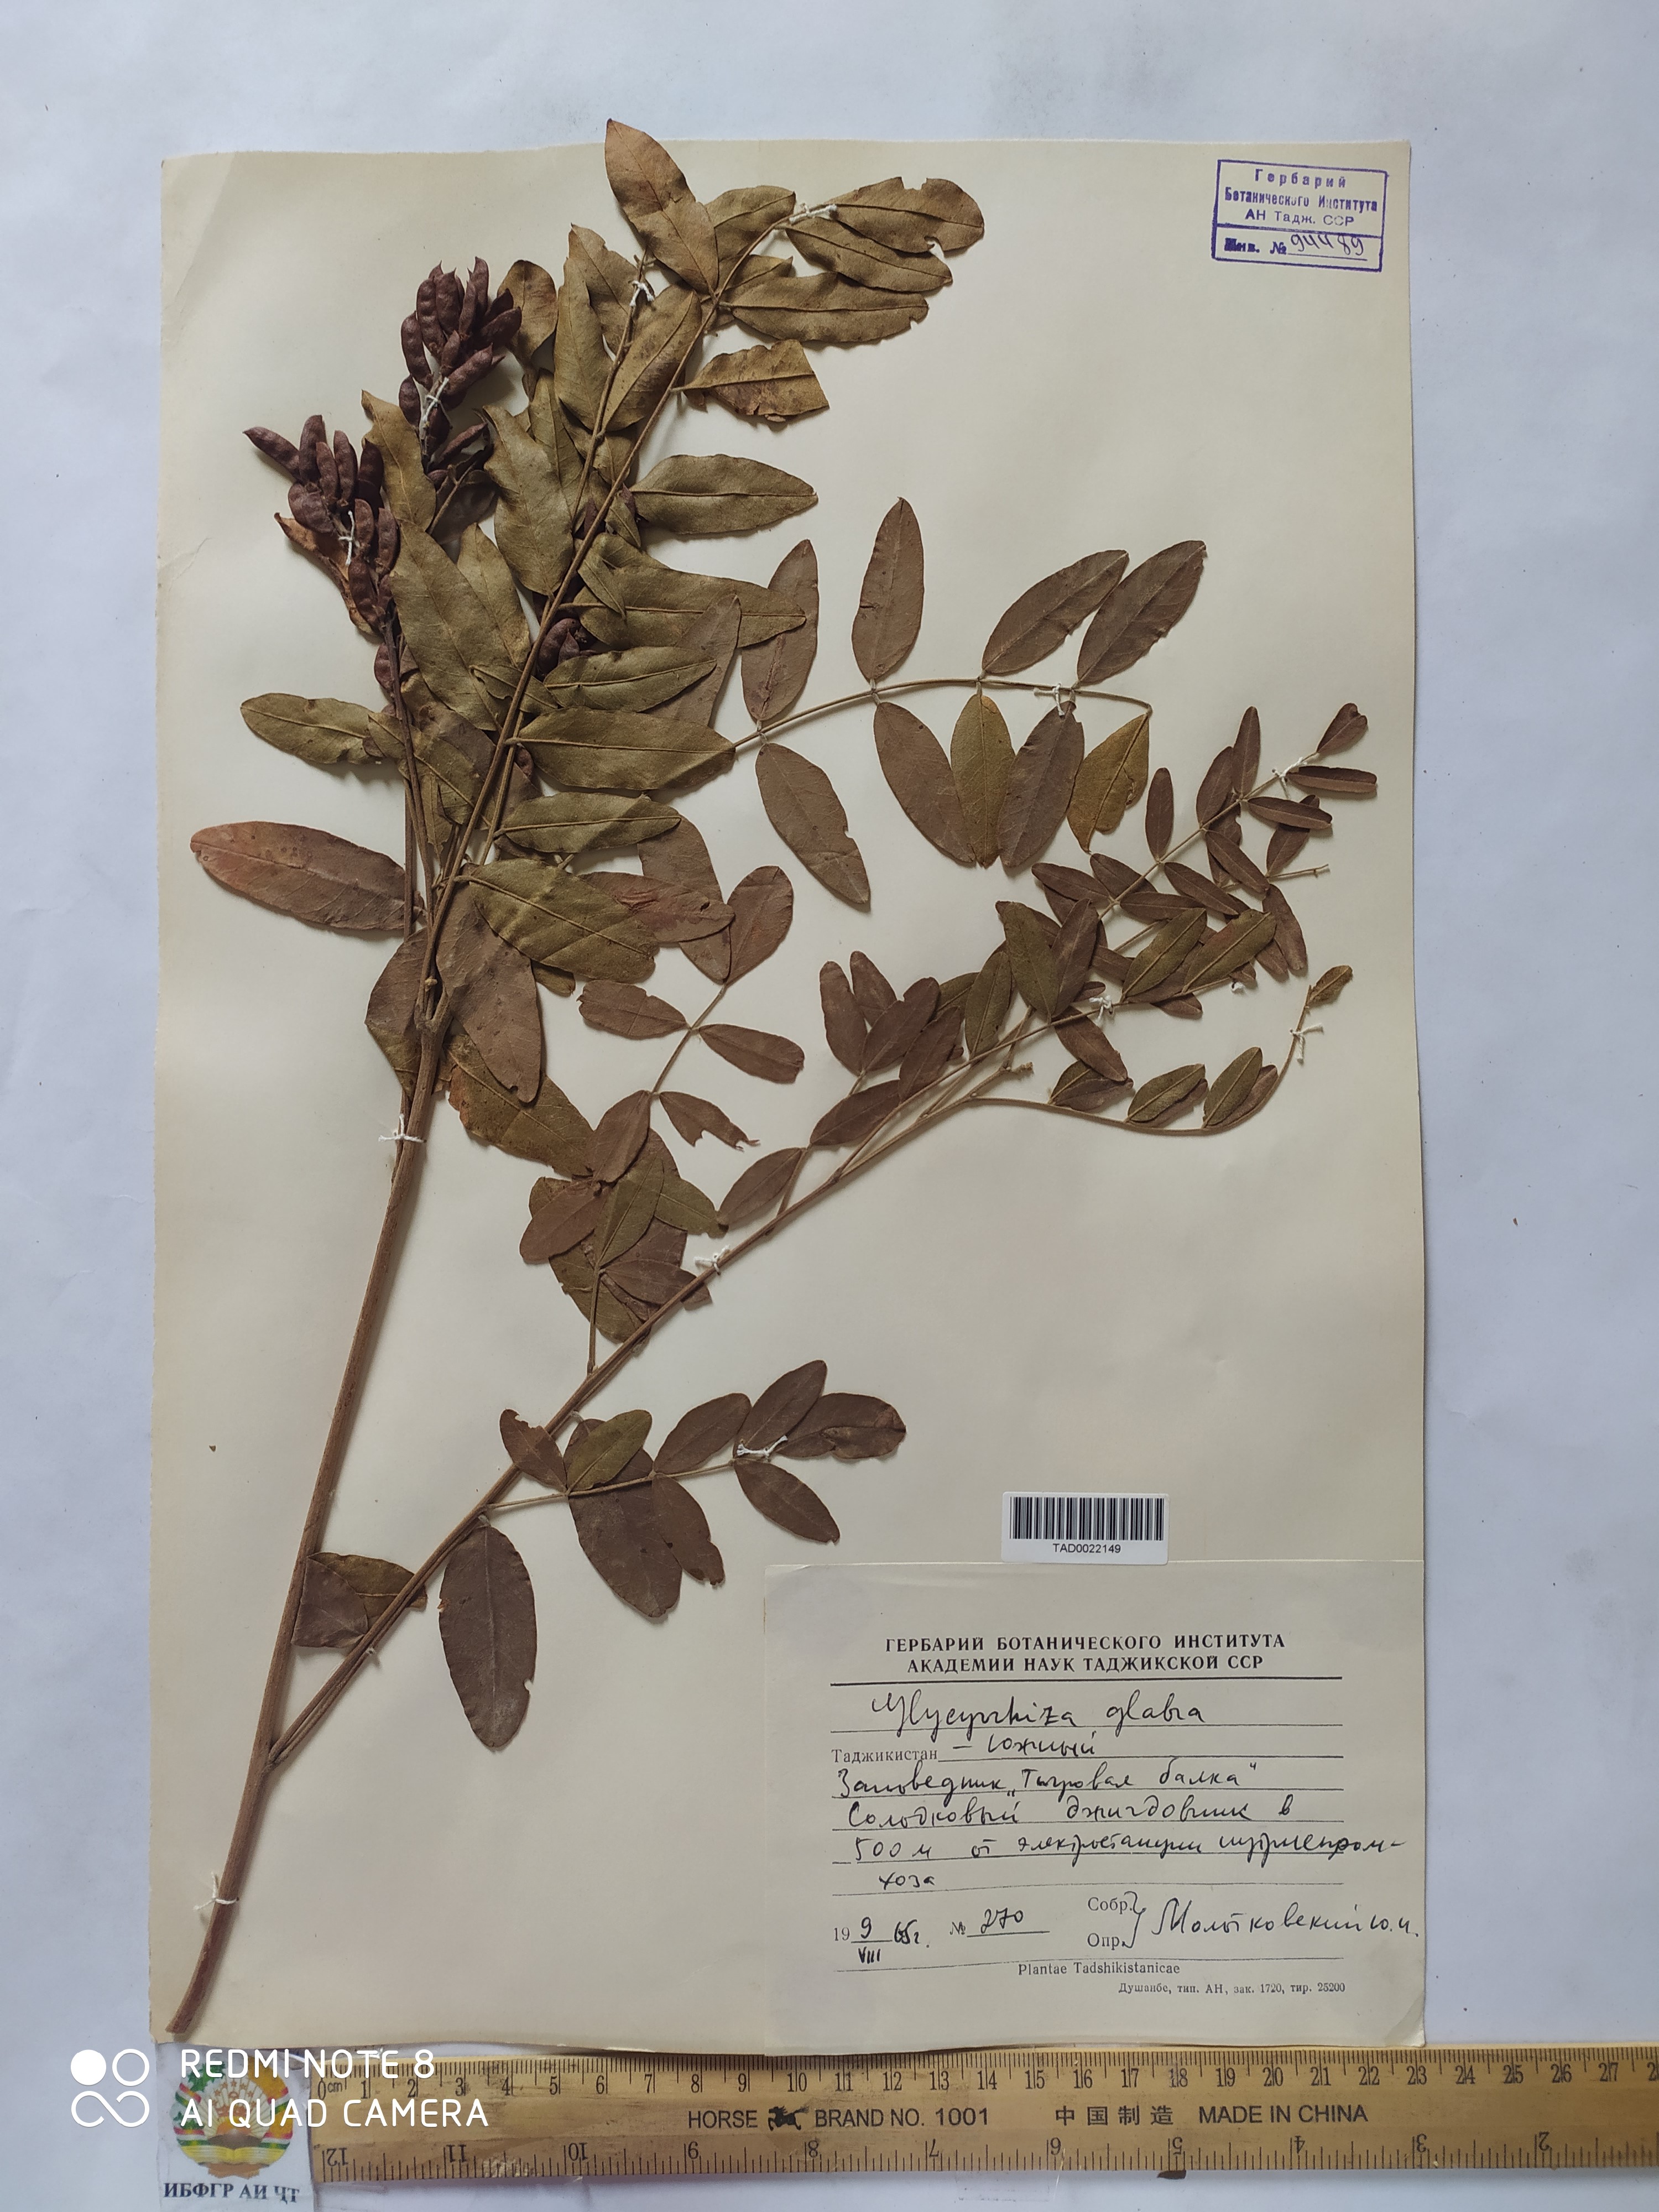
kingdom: Plantae
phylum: Tracheophyta
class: Magnoliopsida
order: Fabales
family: Fabaceae
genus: Glycyrrhiza
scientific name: Glycyrrhiza glabra
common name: Liquorice
